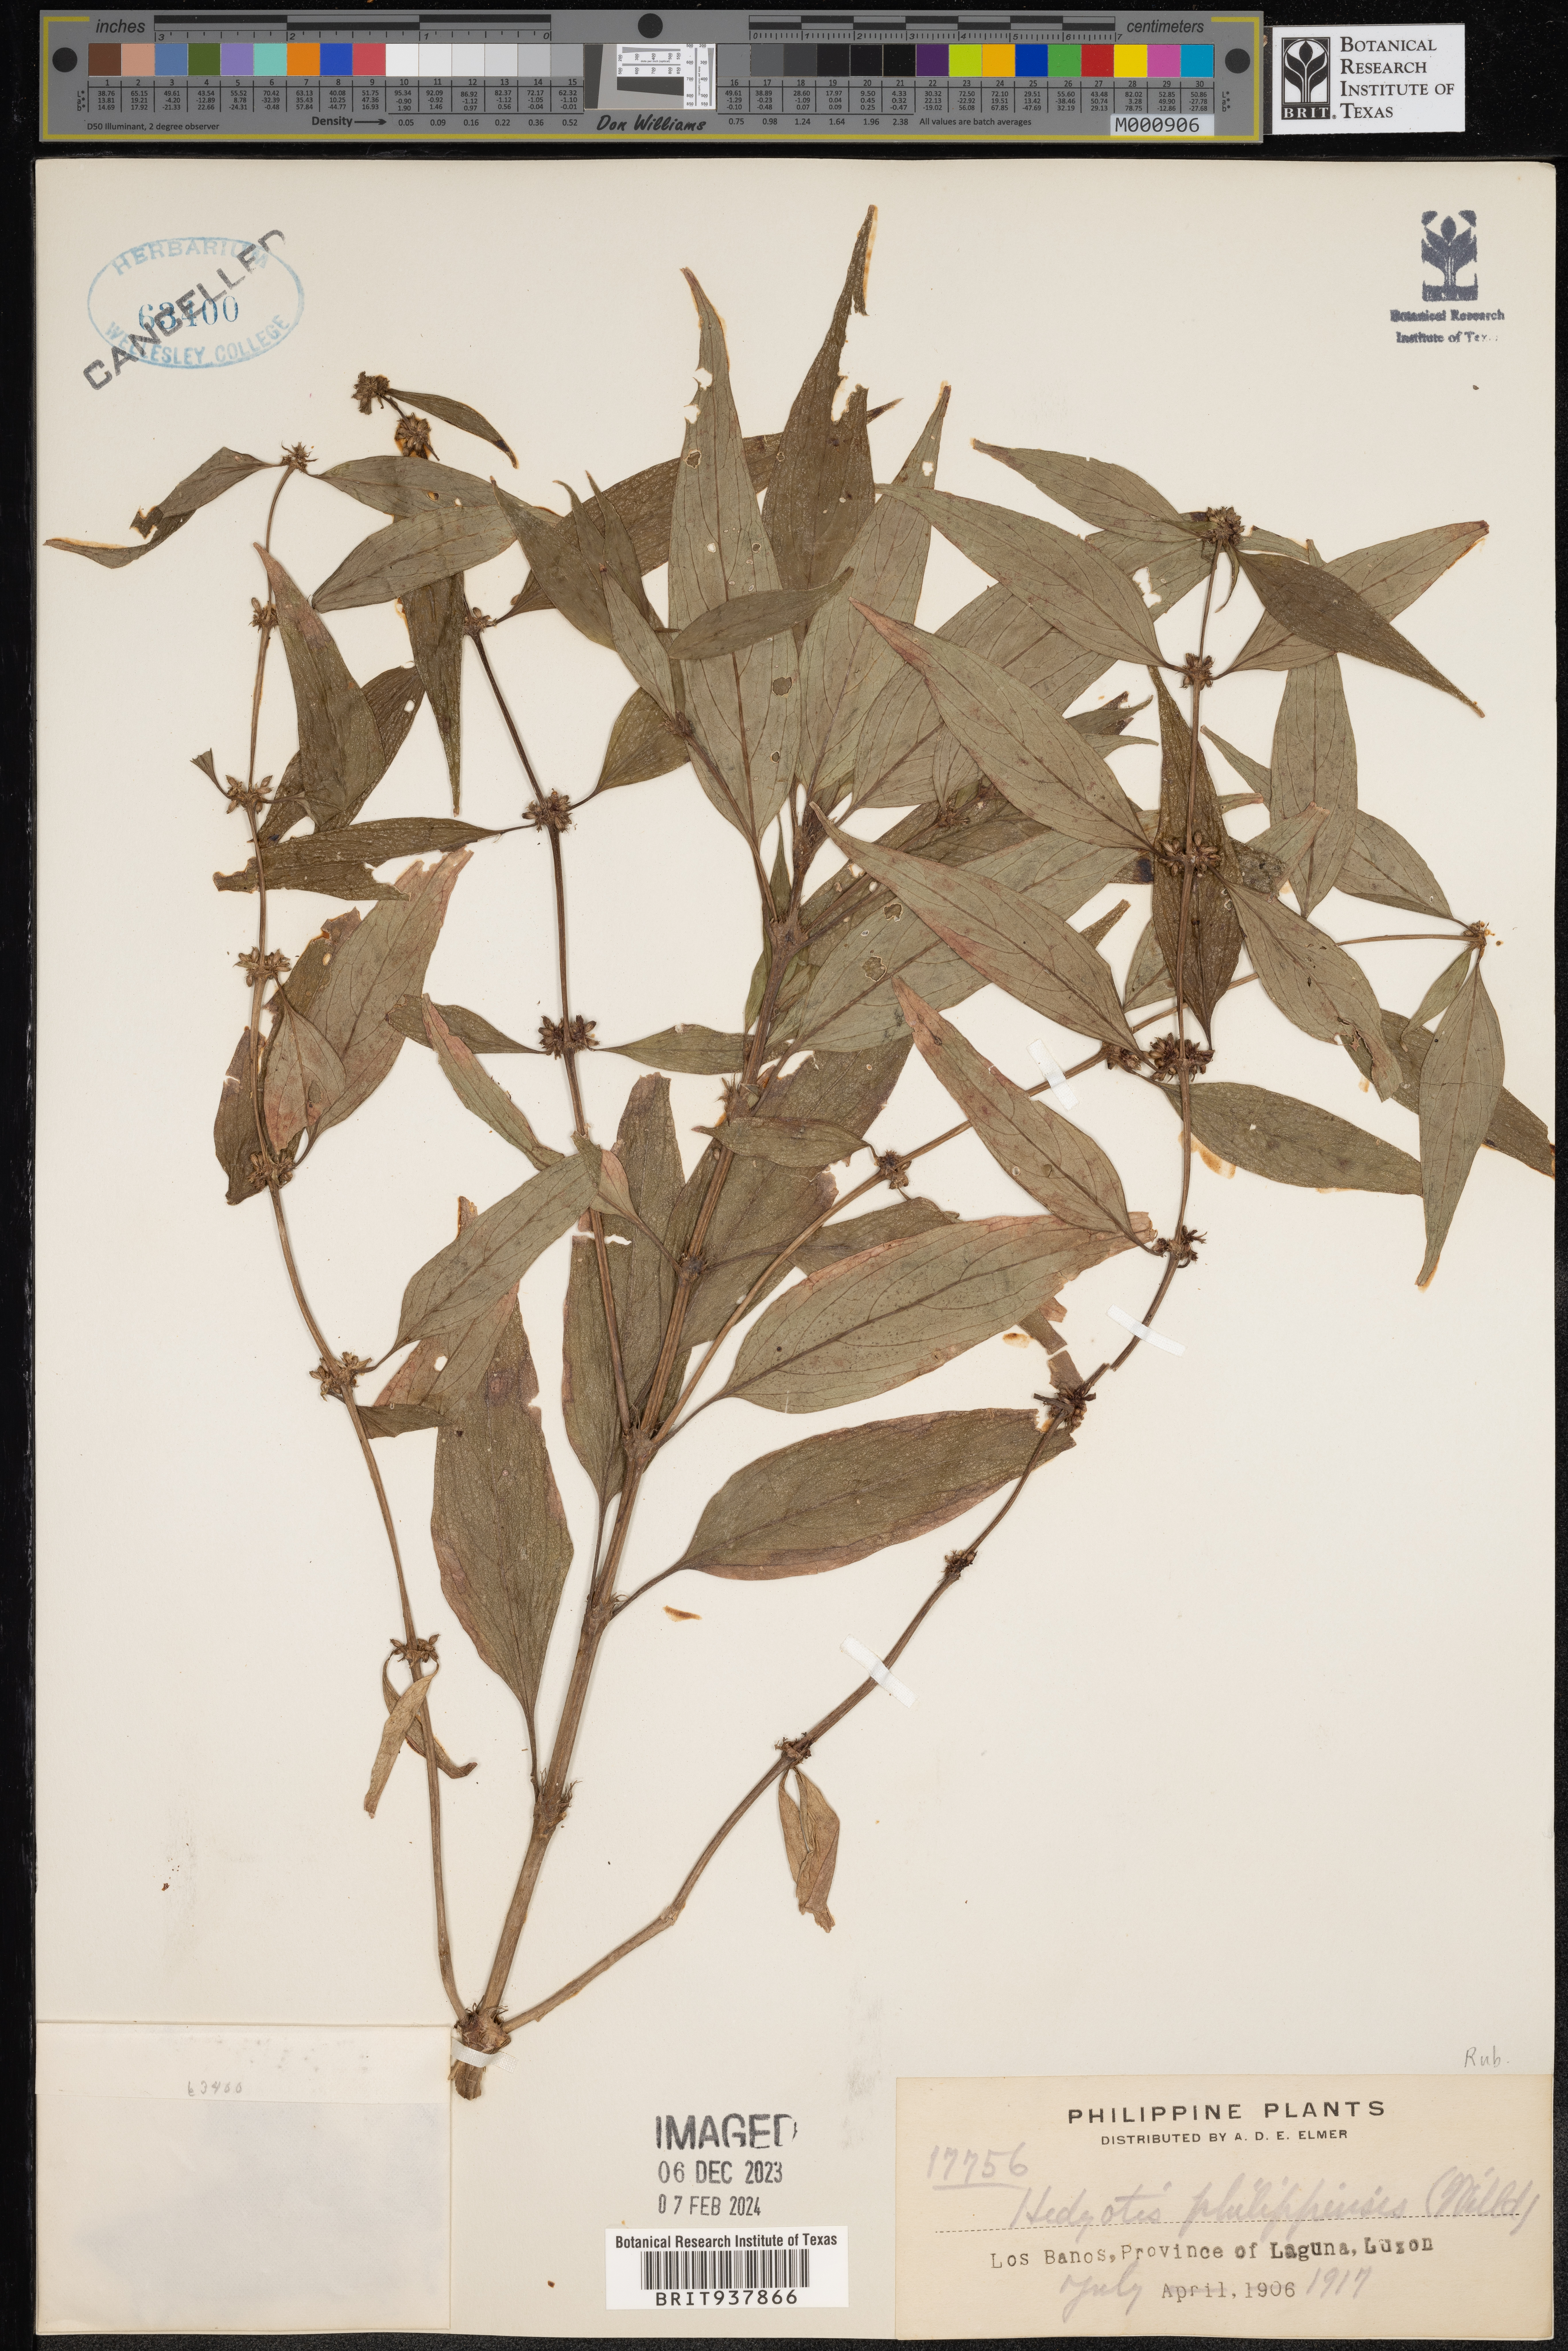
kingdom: Plantae
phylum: Tracheophyta
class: Magnoliopsida
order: Gentianales
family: Rubiaceae
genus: Hedyotis
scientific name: Hedyotis
